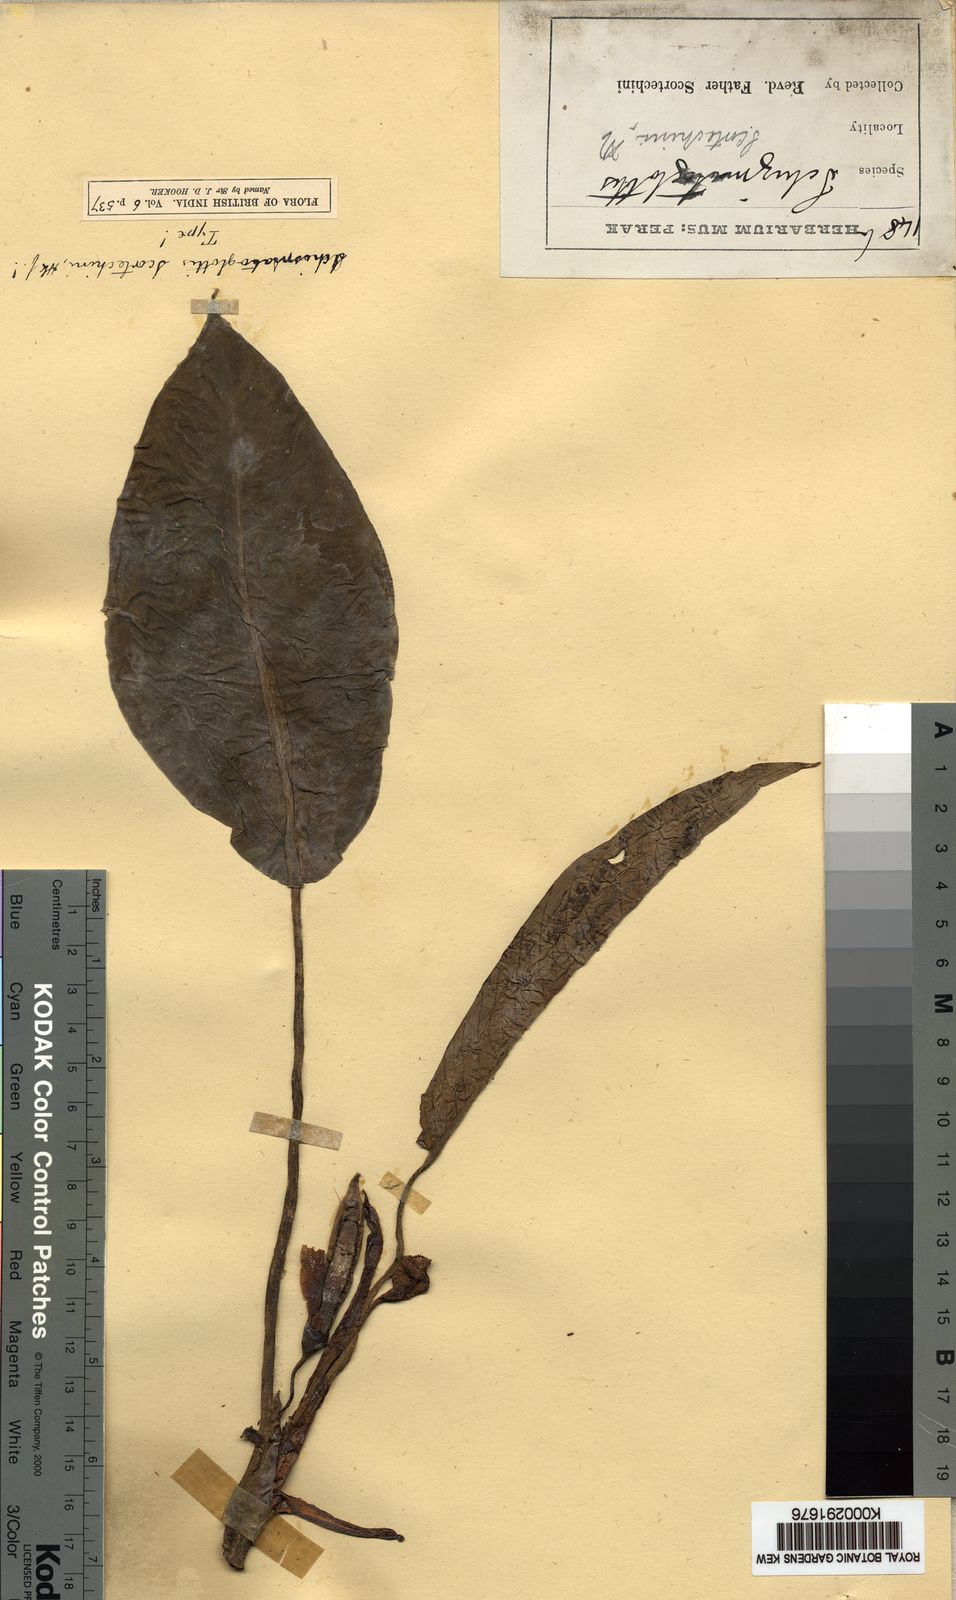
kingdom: Plantae
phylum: Tracheophyta
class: Liliopsida
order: Alismatales
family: Araceae
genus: Schismatoglottis
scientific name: Schismatoglottis scortechinii
